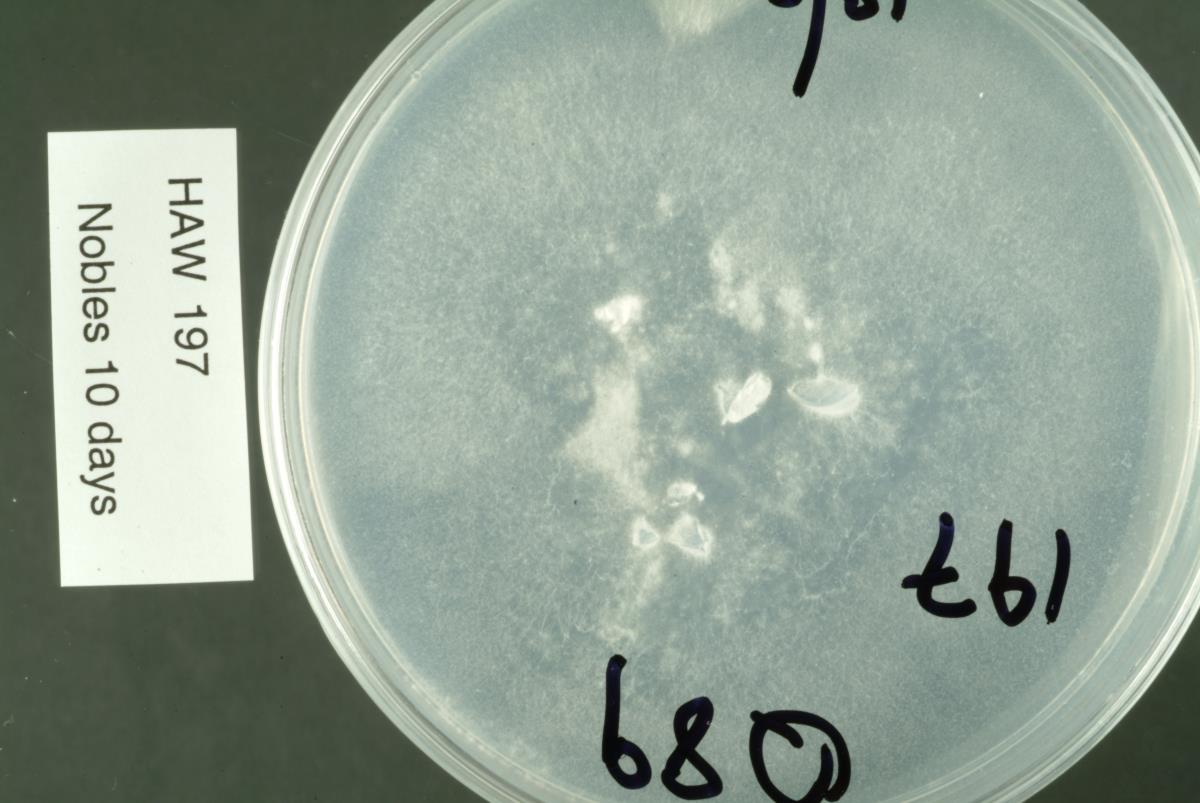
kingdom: Fungi
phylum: Ascomycota
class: Leotiomycetes
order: Helotiales
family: Helotiaceae
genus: Crocicreas
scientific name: Crocicreas
